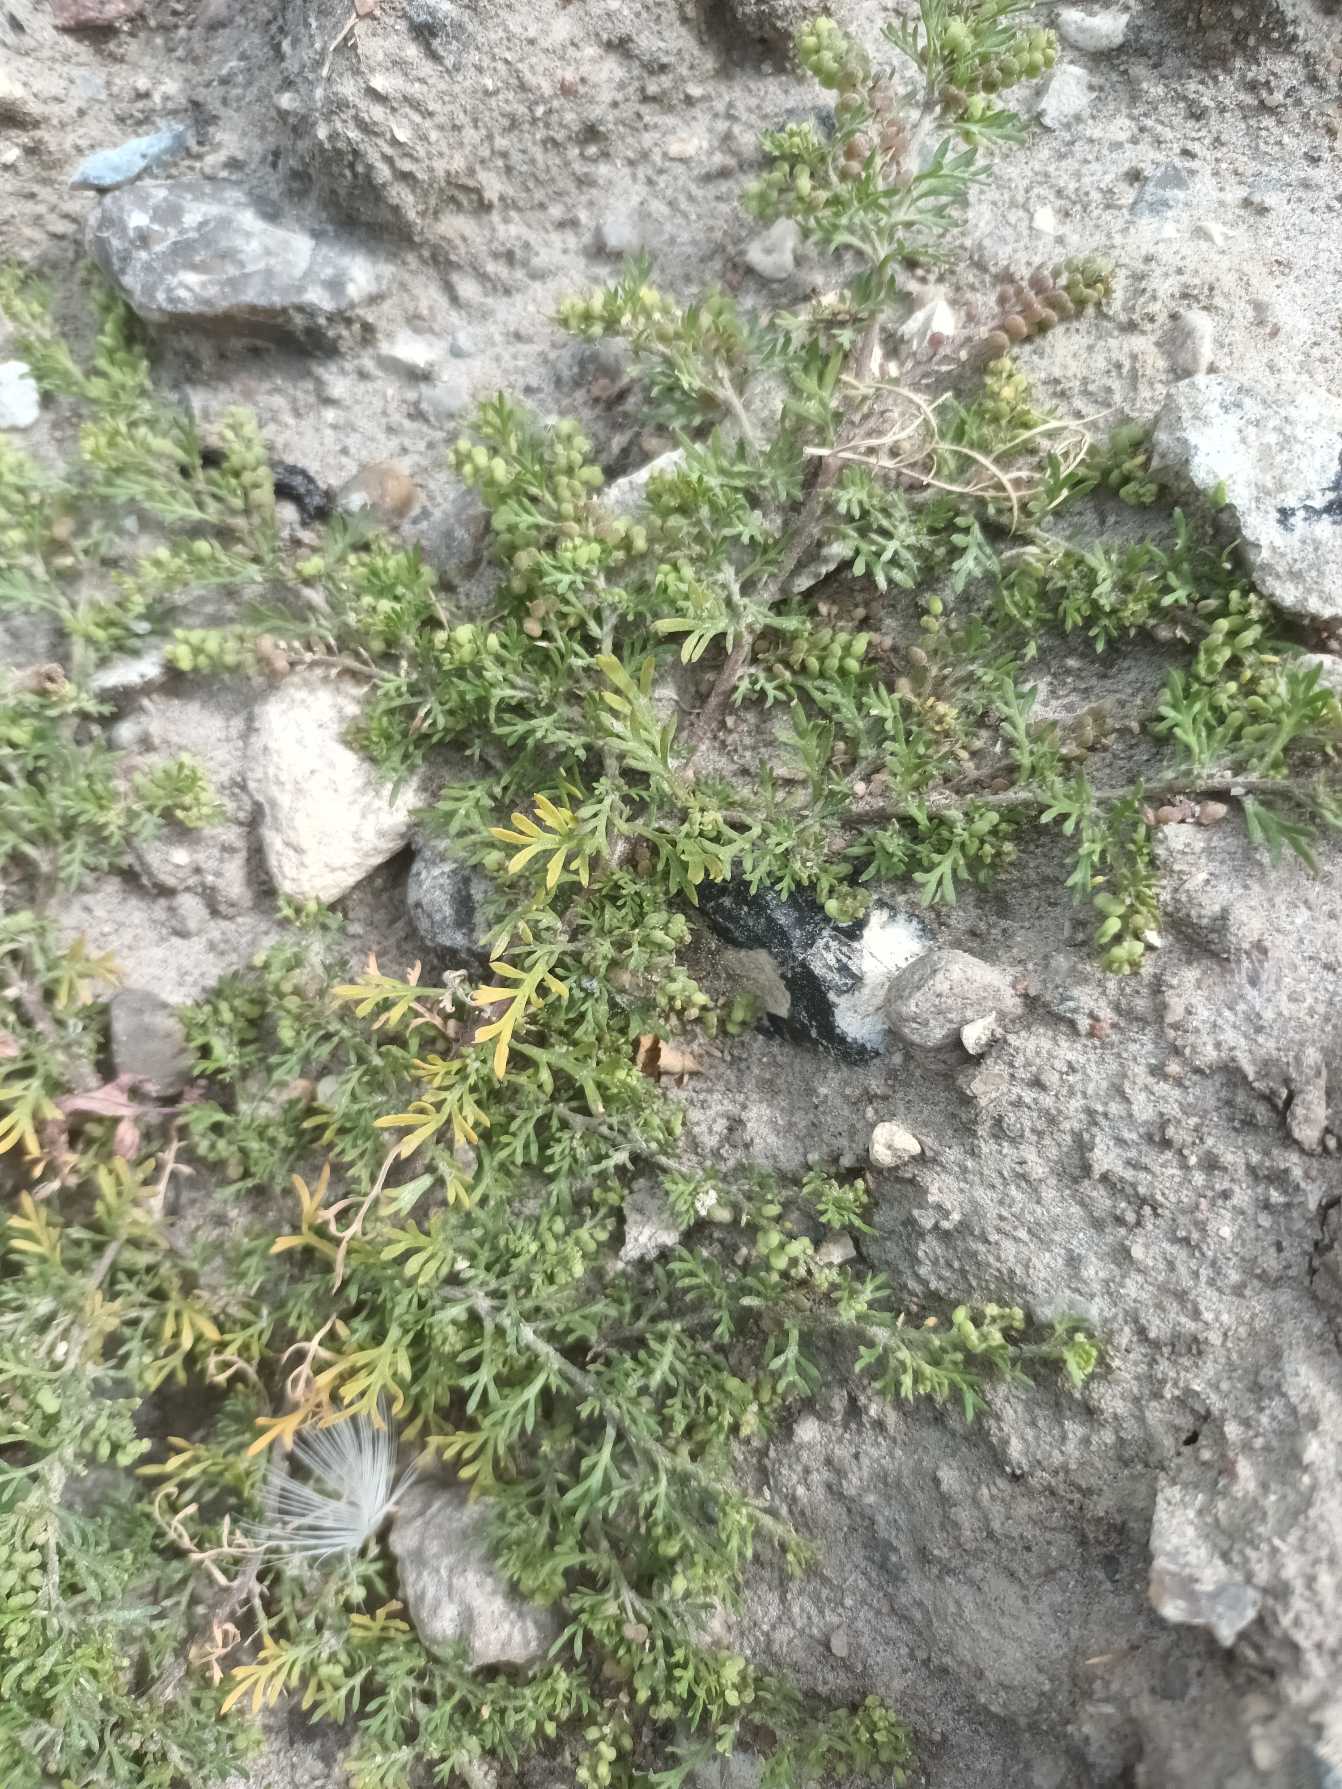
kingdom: Plantae
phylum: Tracheophyta
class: Magnoliopsida
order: Brassicales
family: Brassicaceae
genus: Lepidium
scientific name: Lepidium didymum
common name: Liden ravnefod
